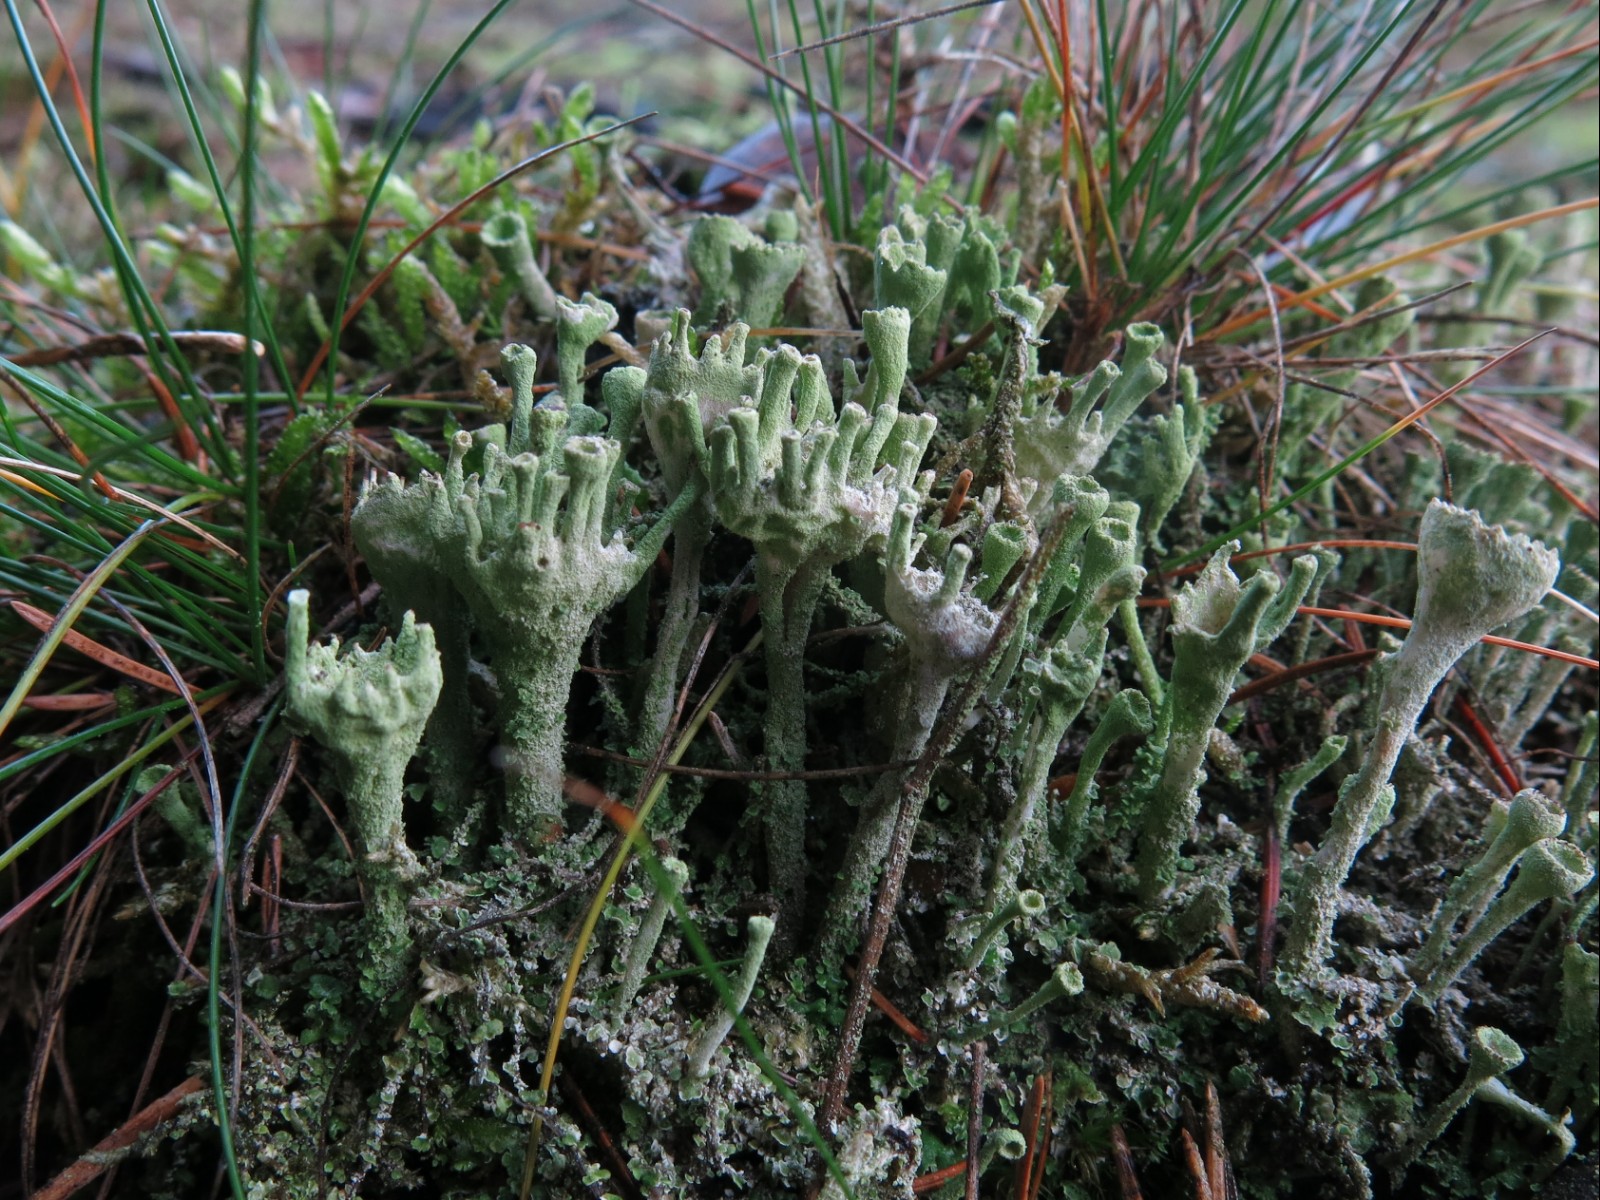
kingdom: Fungi
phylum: Ascomycota
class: Lecanoromycetes
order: Lecanorales
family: Cladoniaceae
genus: Cladonia
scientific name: Cladonia
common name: brungrøn bægerlav
